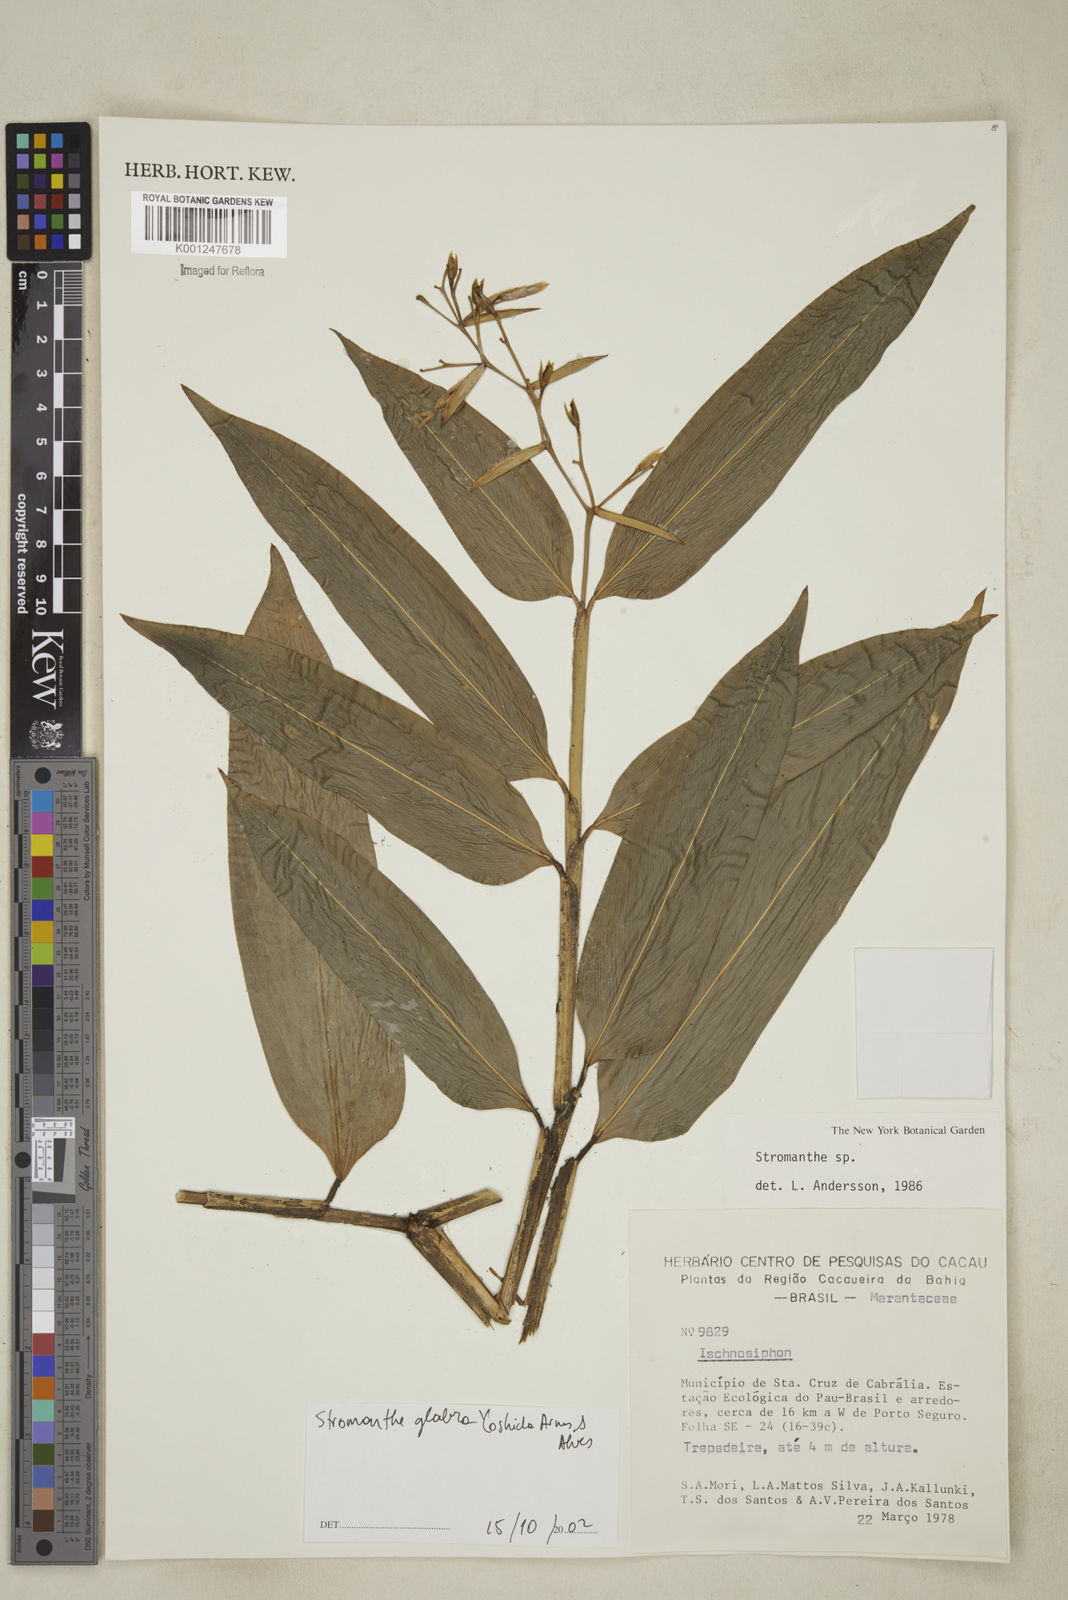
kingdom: Plantae
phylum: Tracheophyta
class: Liliopsida
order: Zingiberales
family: Marantaceae
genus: Stromanthe
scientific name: Stromanthe
